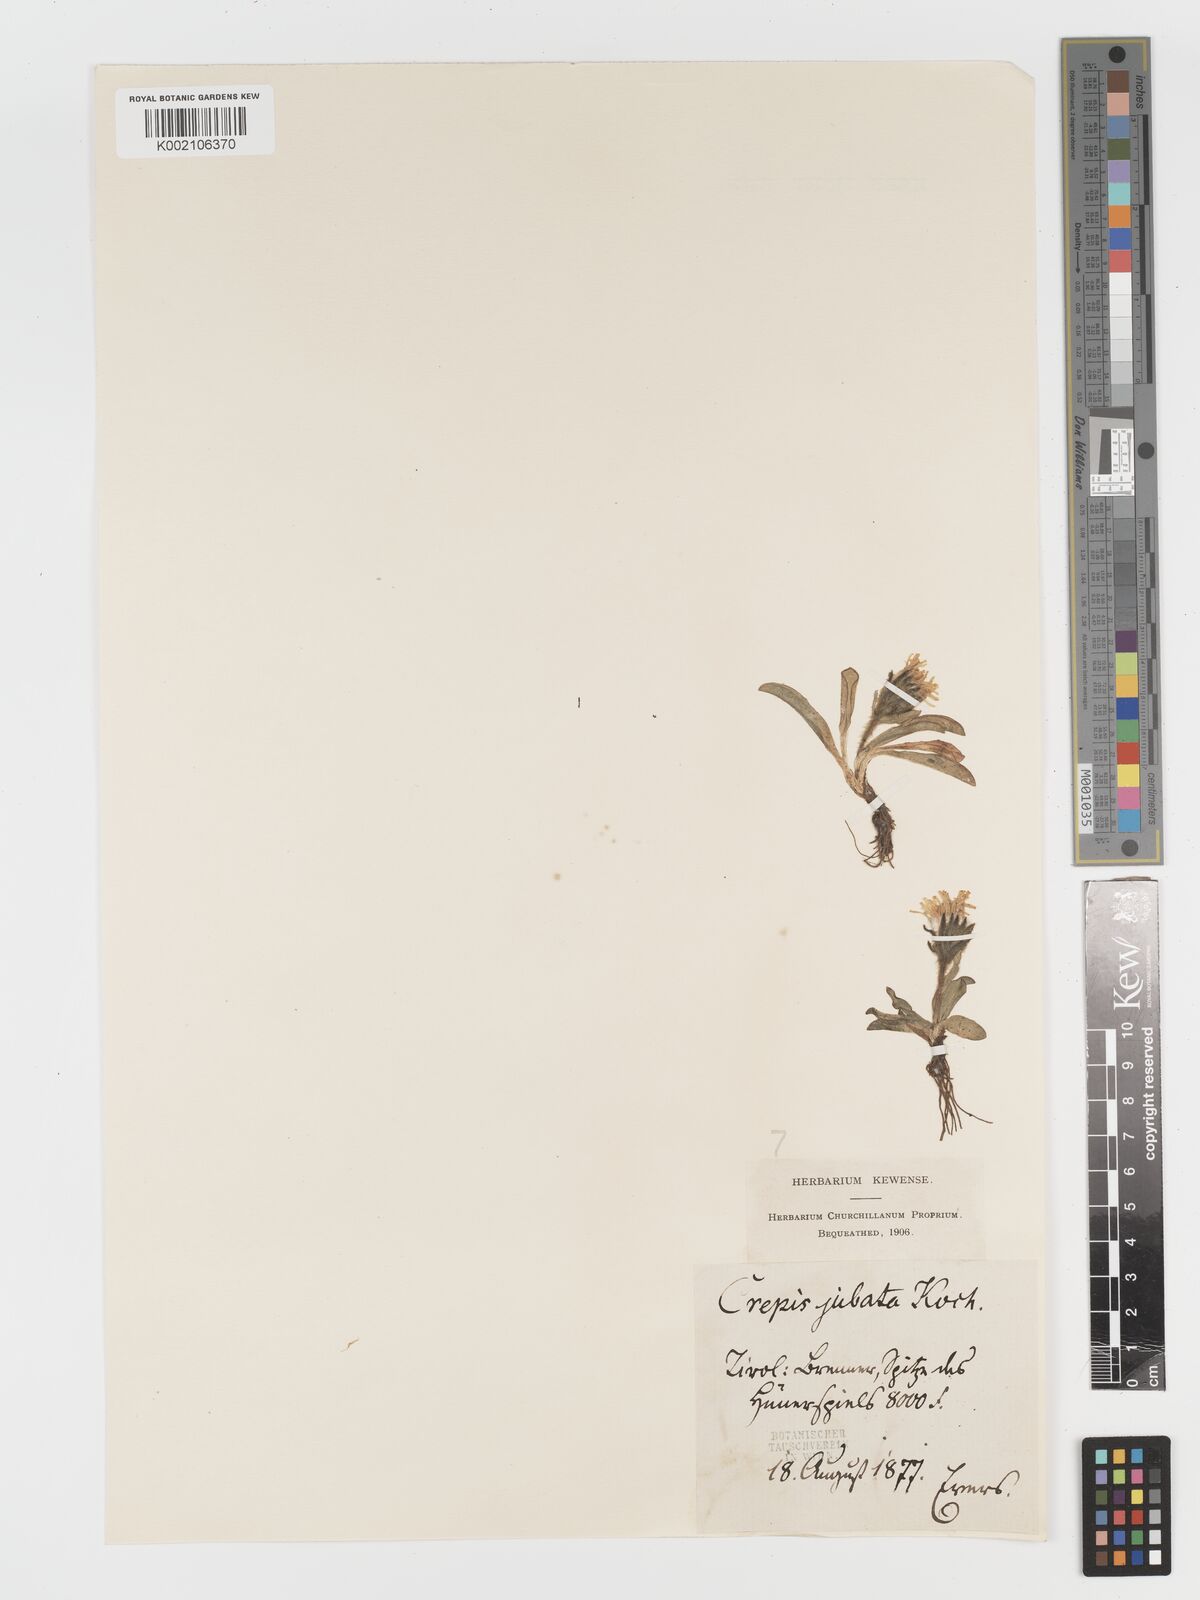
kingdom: Plantae
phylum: Tracheophyta
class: Magnoliopsida
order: Asterales
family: Asteraceae
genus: Crepis
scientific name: Crepis
